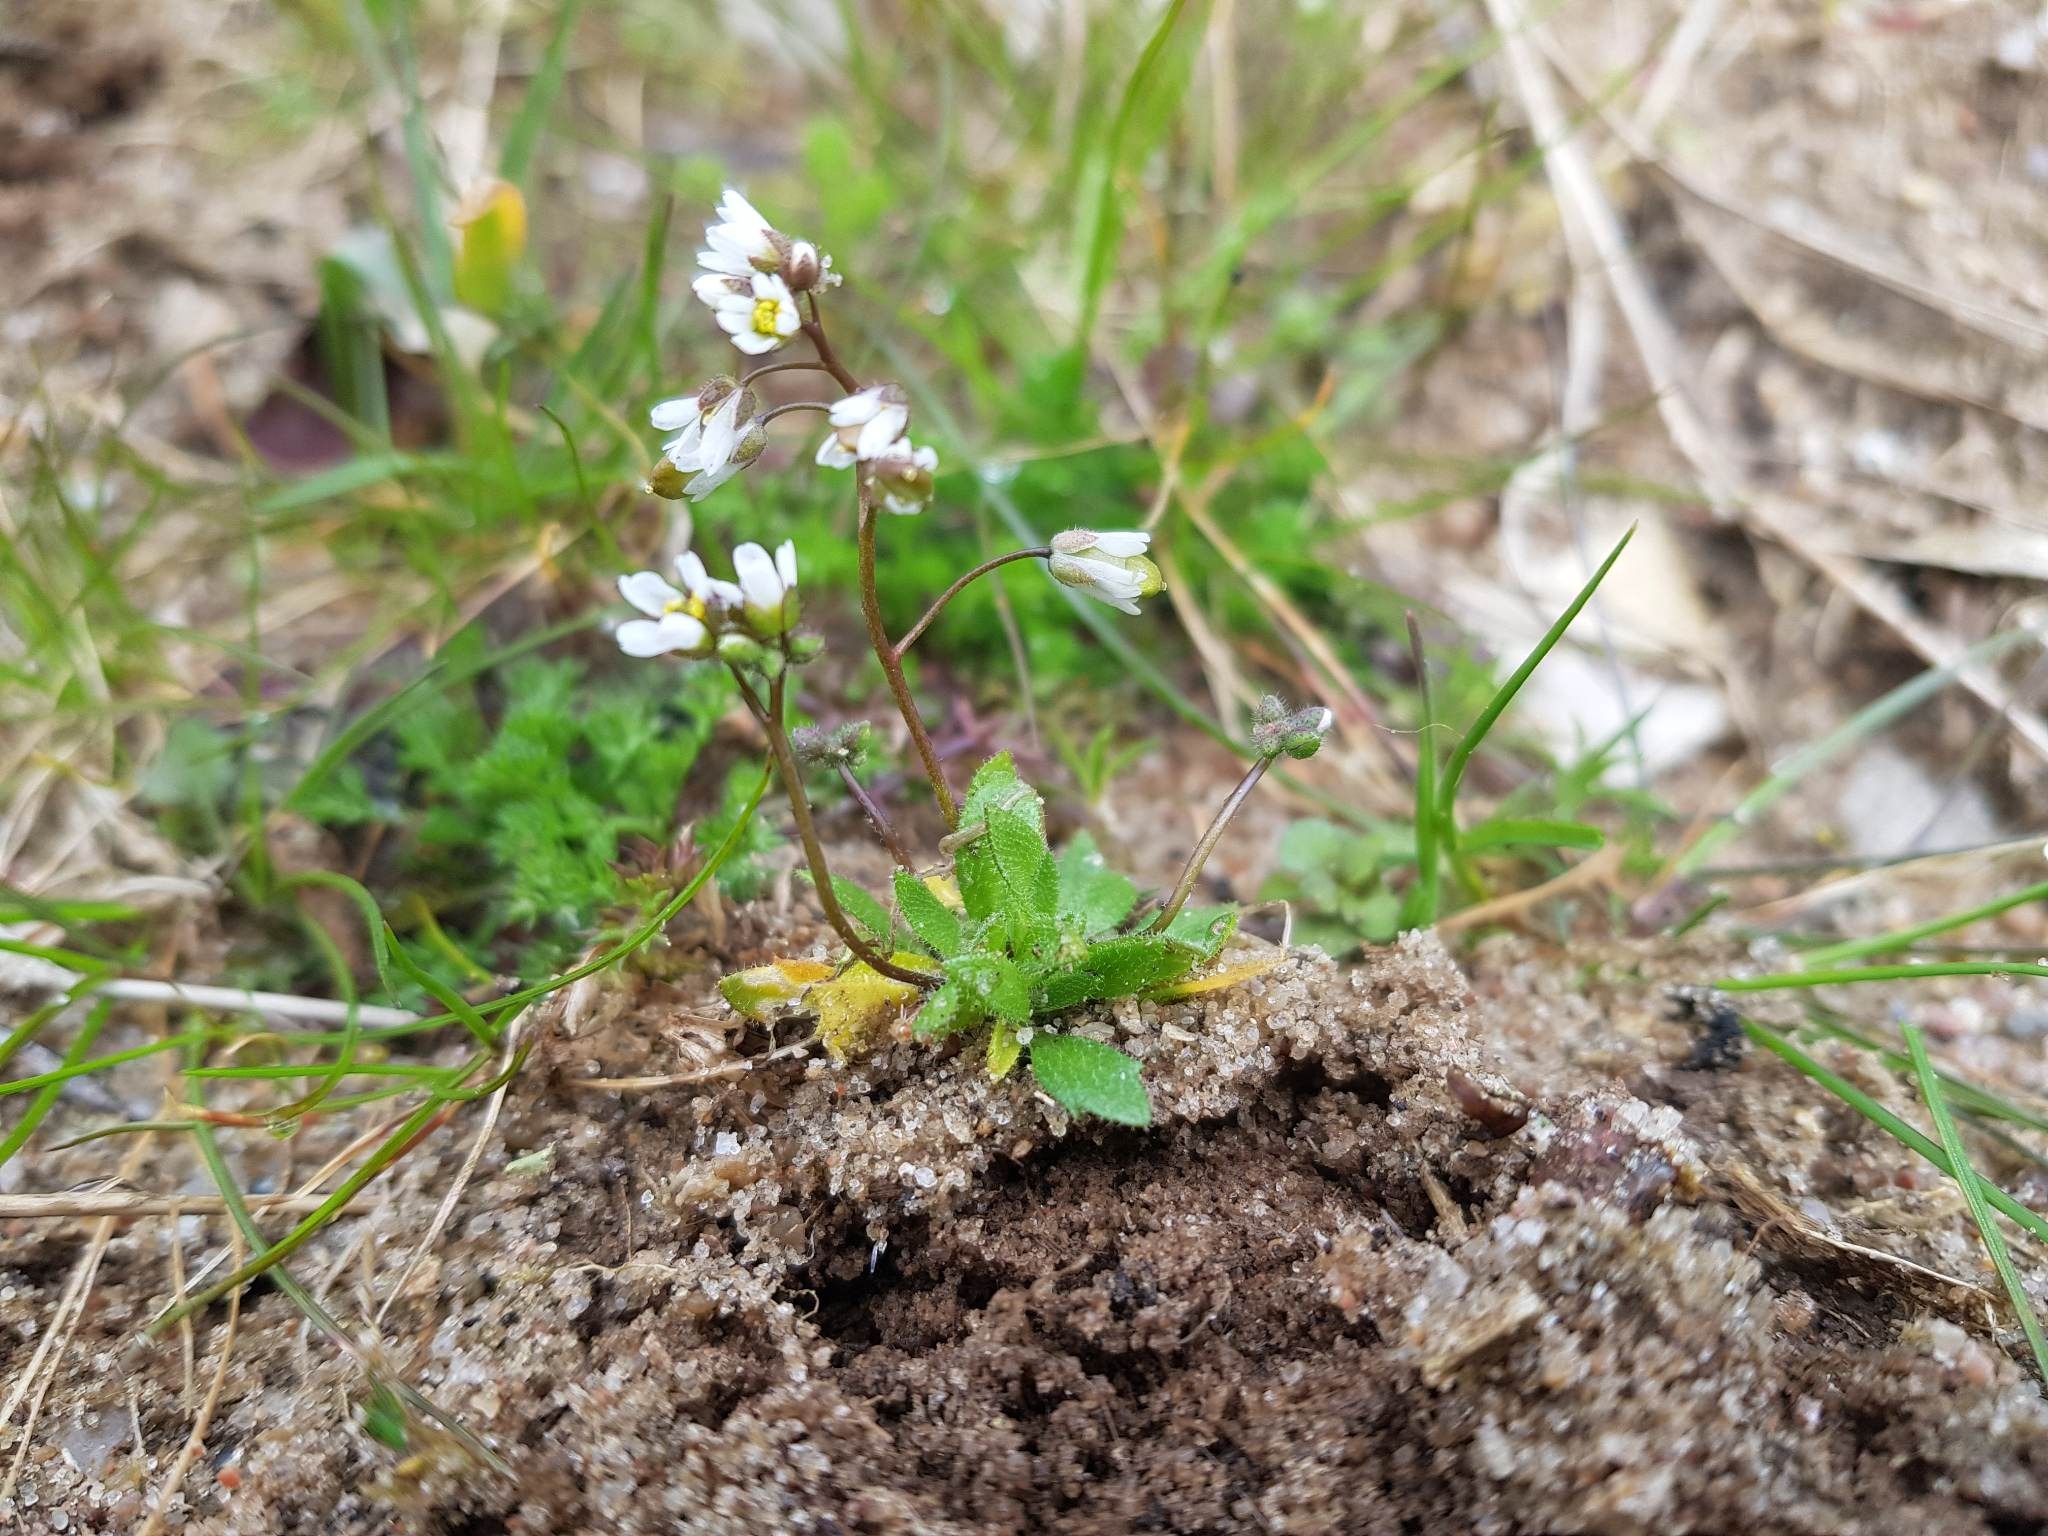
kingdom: Plantae
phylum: Tracheophyta
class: Magnoliopsida
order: Brassicales
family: Brassicaceae
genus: Draba
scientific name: Draba verna
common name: Vår-gæslingeblomst
